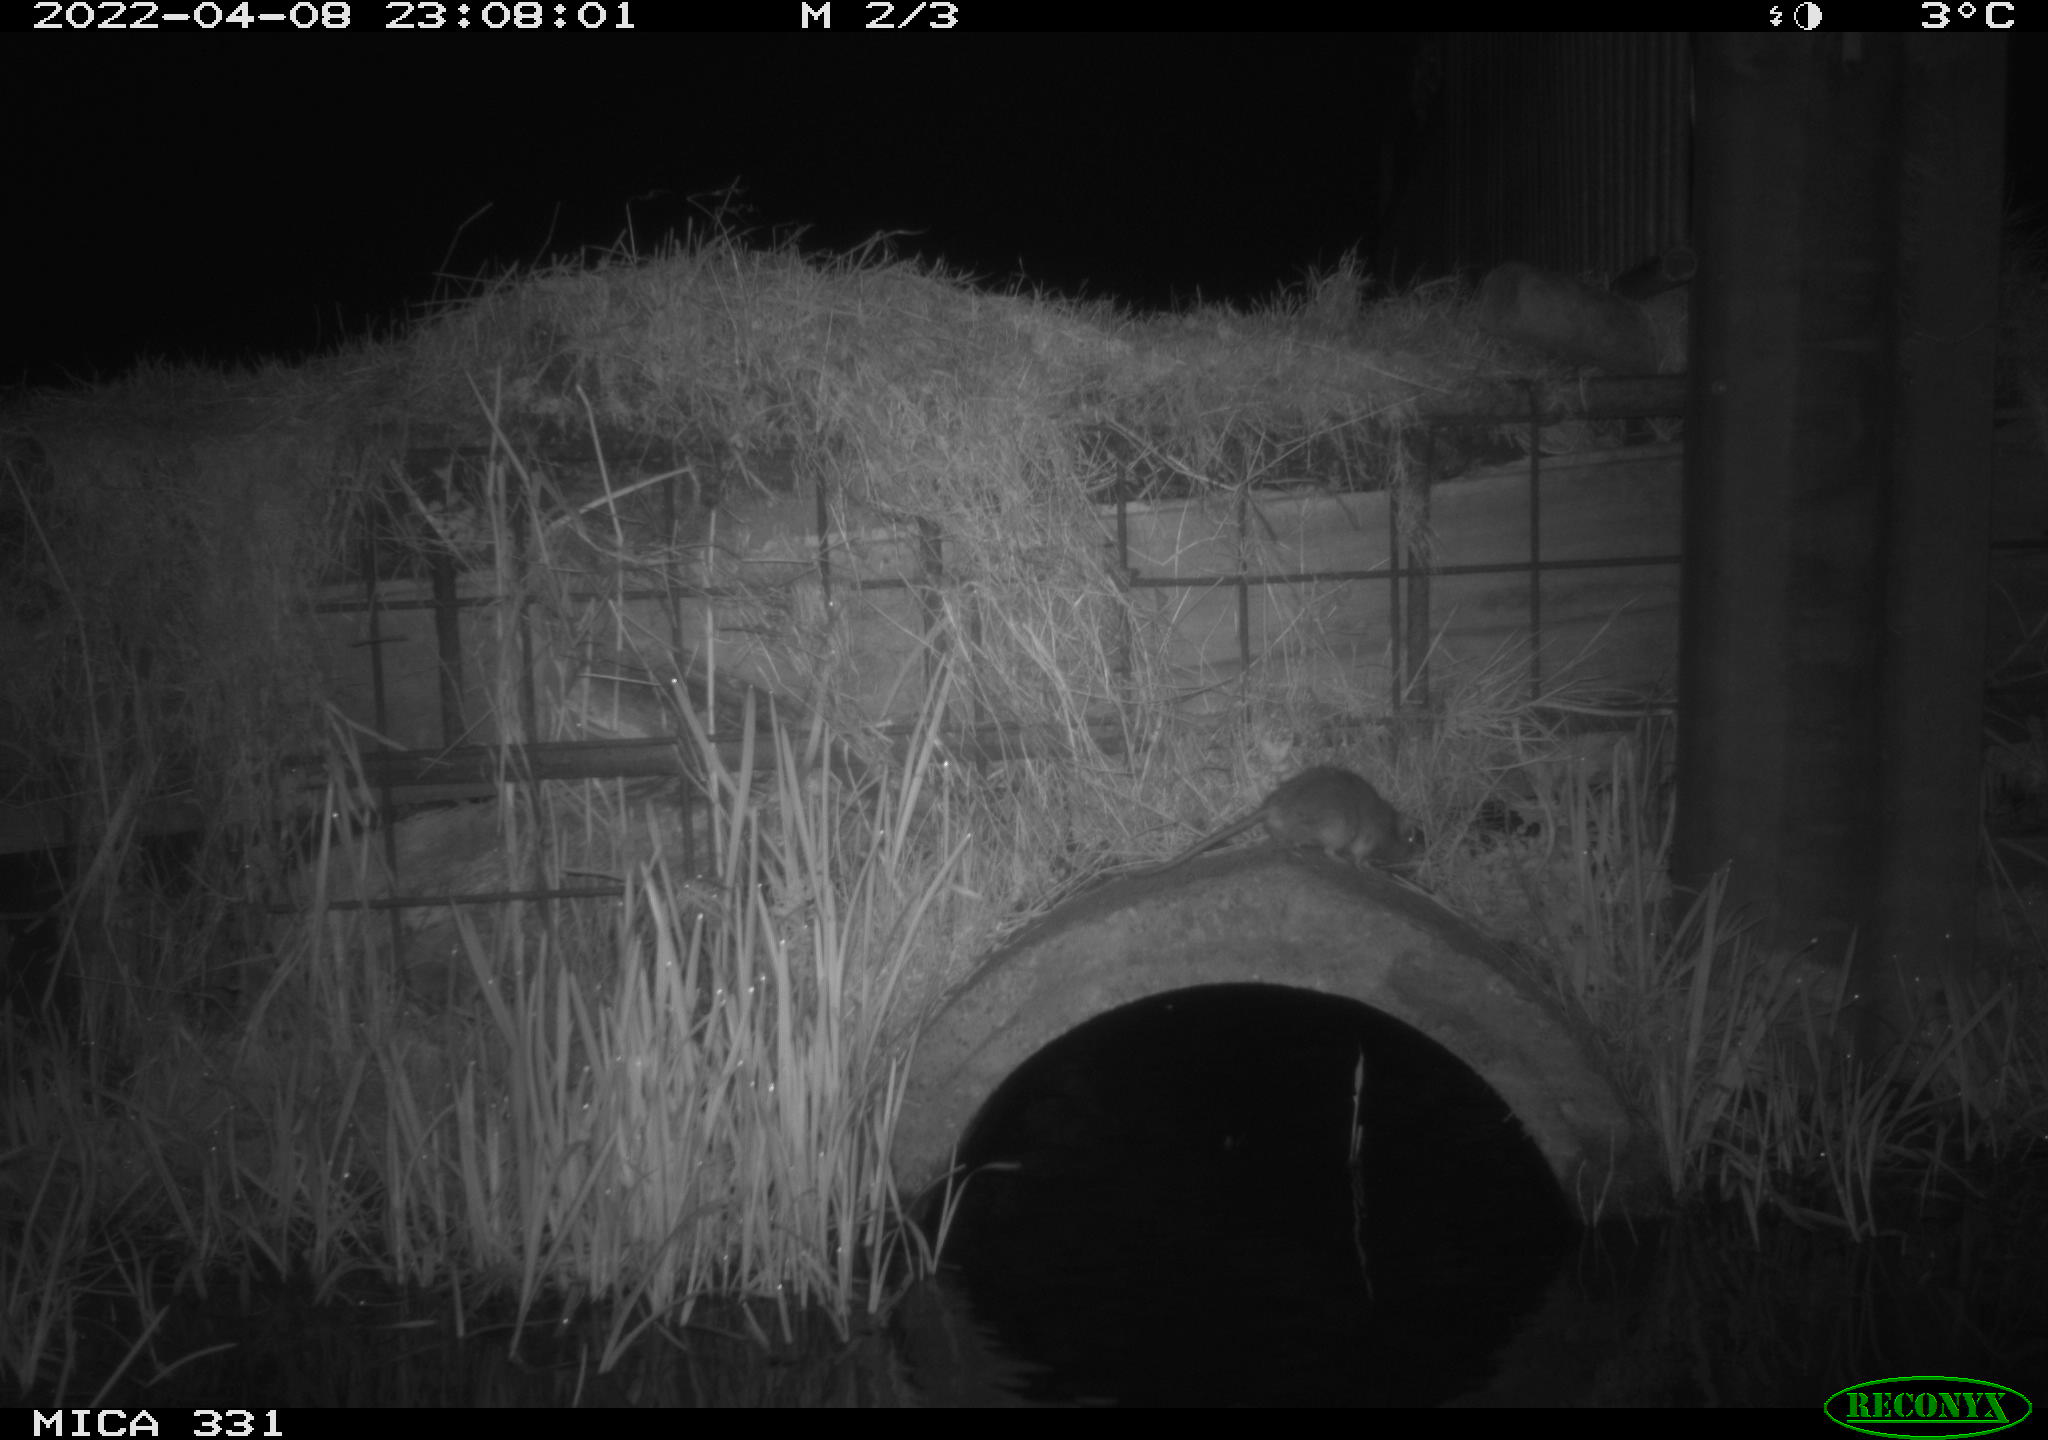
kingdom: Animalia
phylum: Chordata
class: Mammalia
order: Rodentia
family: Muridae
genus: Rattus
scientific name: Rattus norvegicus
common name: Brown rat
